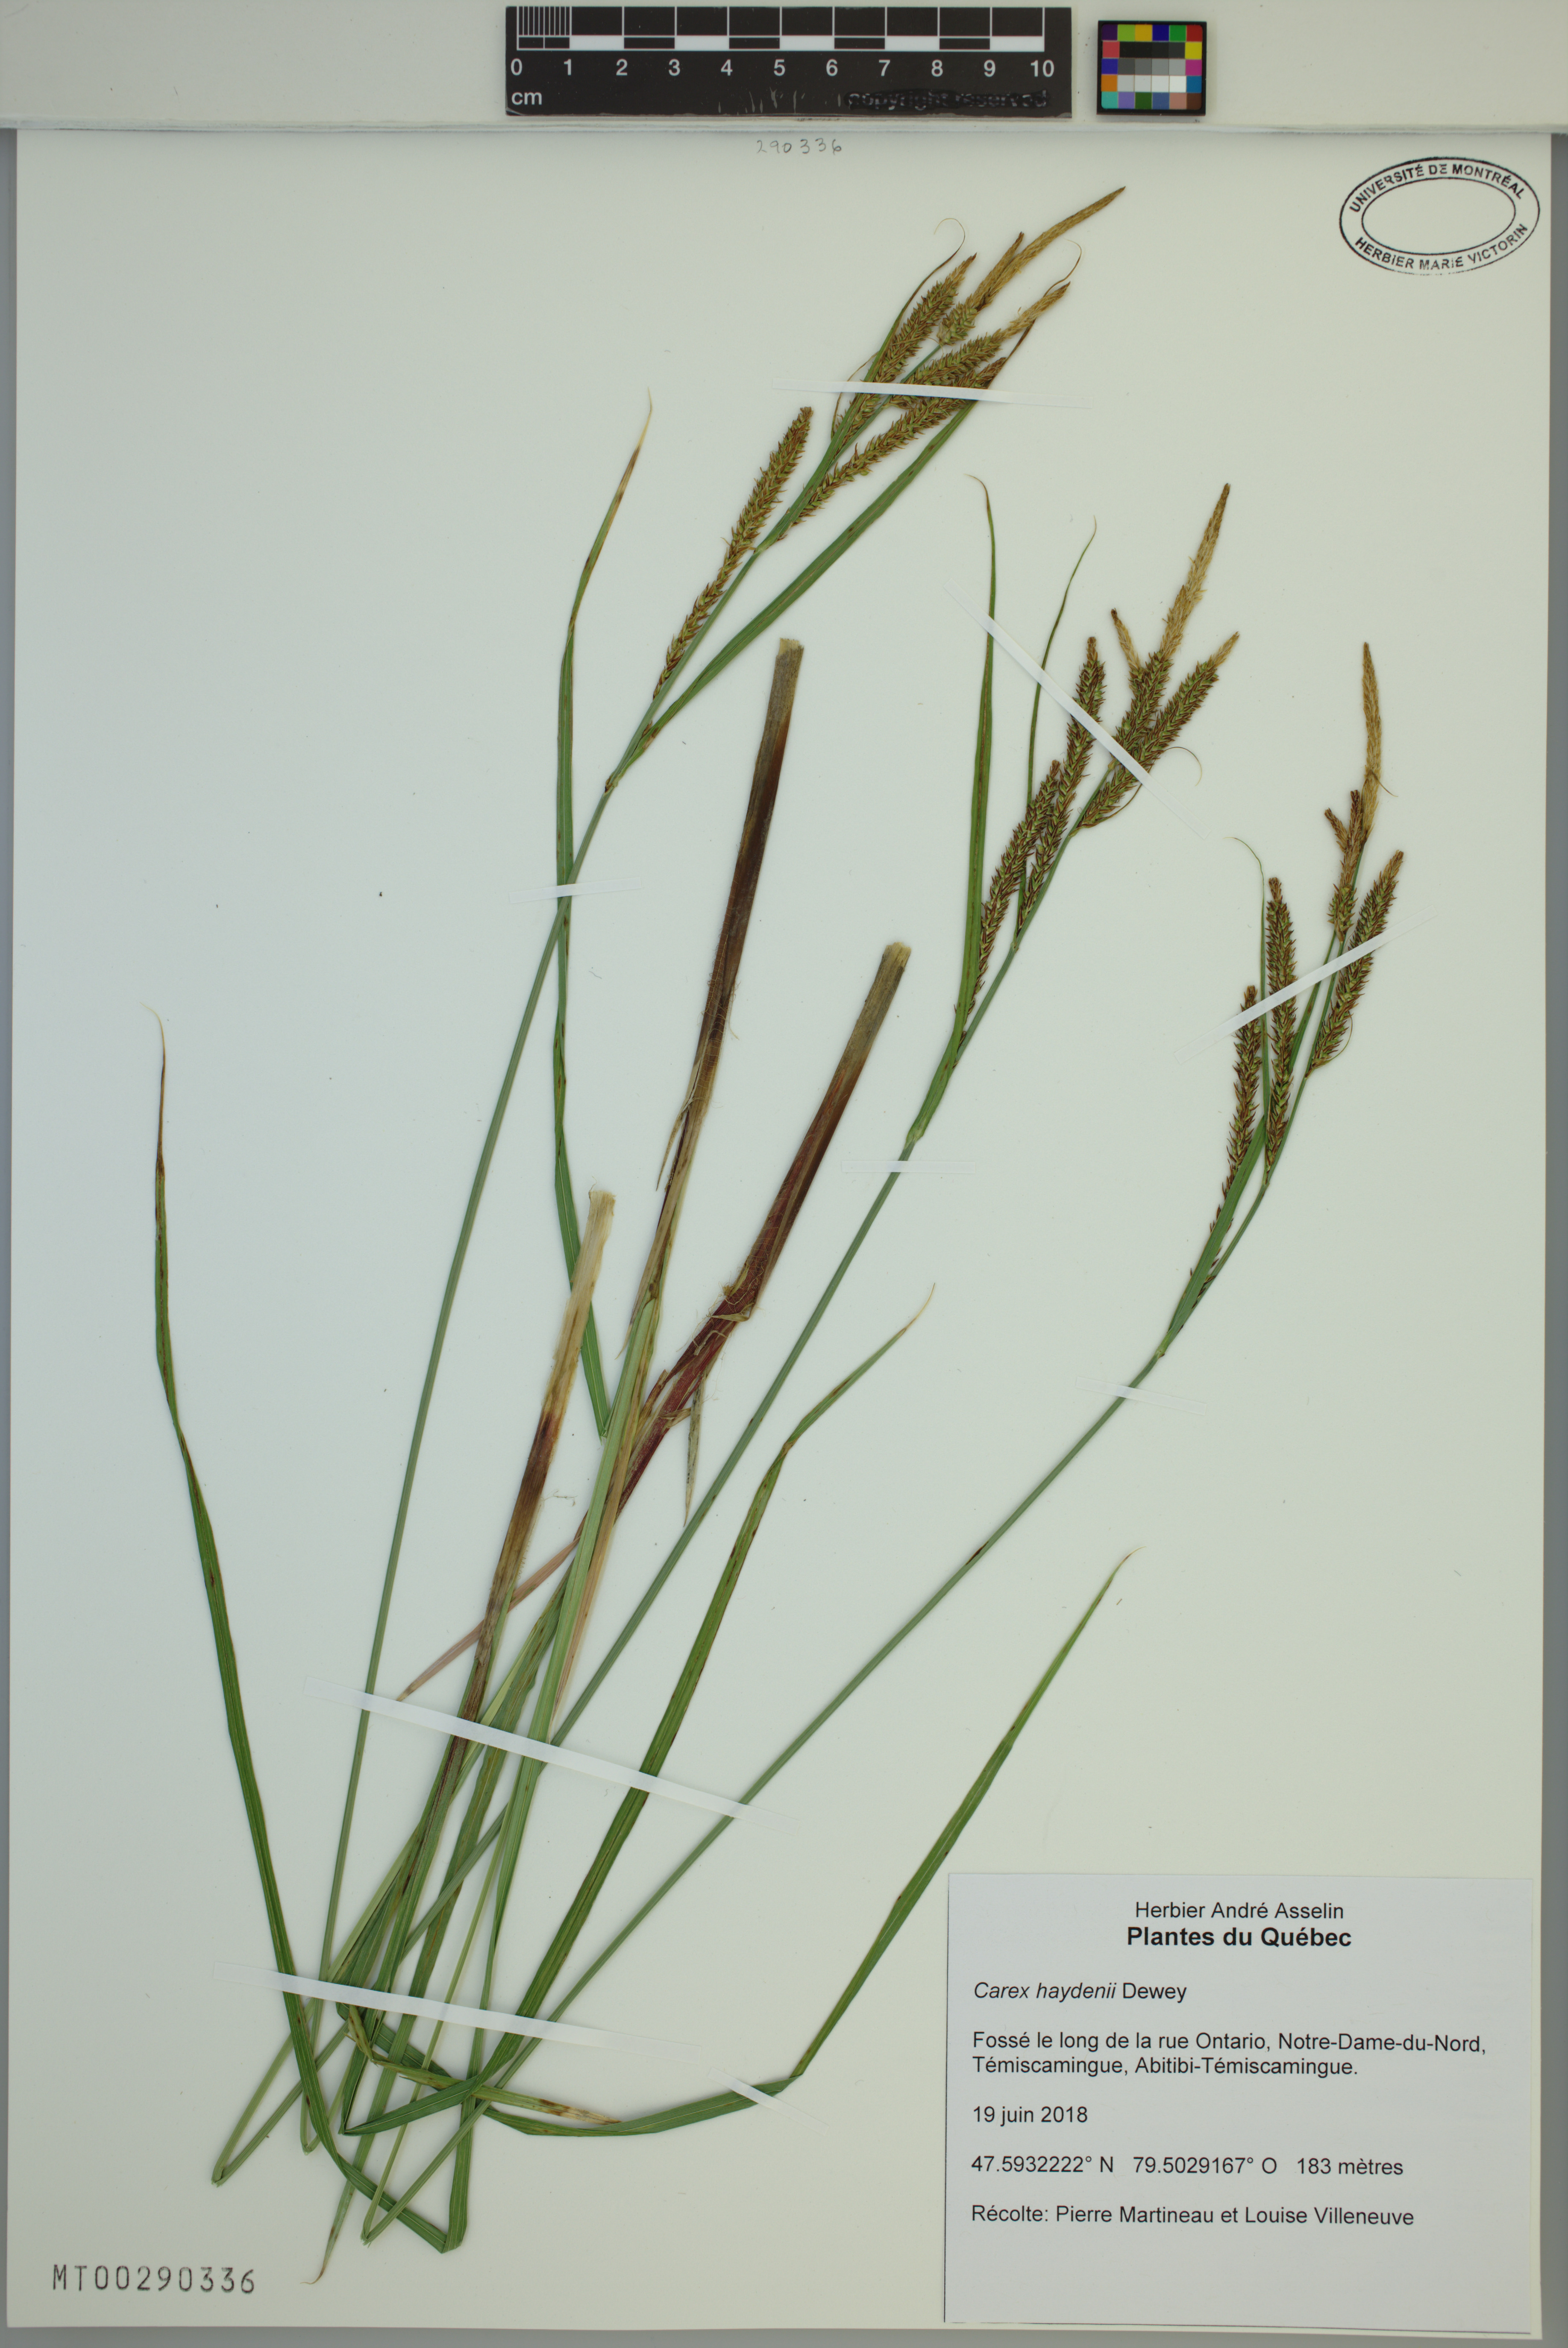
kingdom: Plantae
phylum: Tracheophyta
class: Liliopsida
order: Poales
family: Cyperaceae
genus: Carex
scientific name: Carex haydenii
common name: Hayden's sedge
